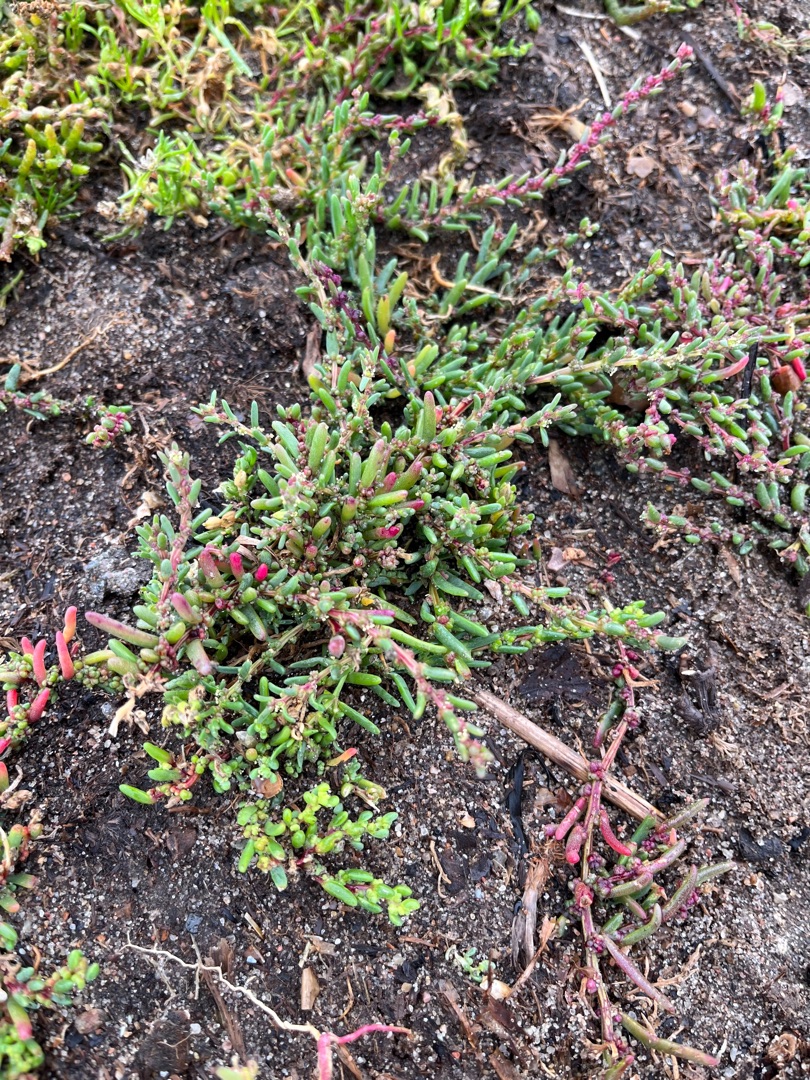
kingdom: Plantae
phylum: Tracheophyta
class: Magnoliopsida
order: Caryophyllales
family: Amaranthaceae
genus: Suaeda
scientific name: Suaeda maritima
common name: Strandgåsefod
